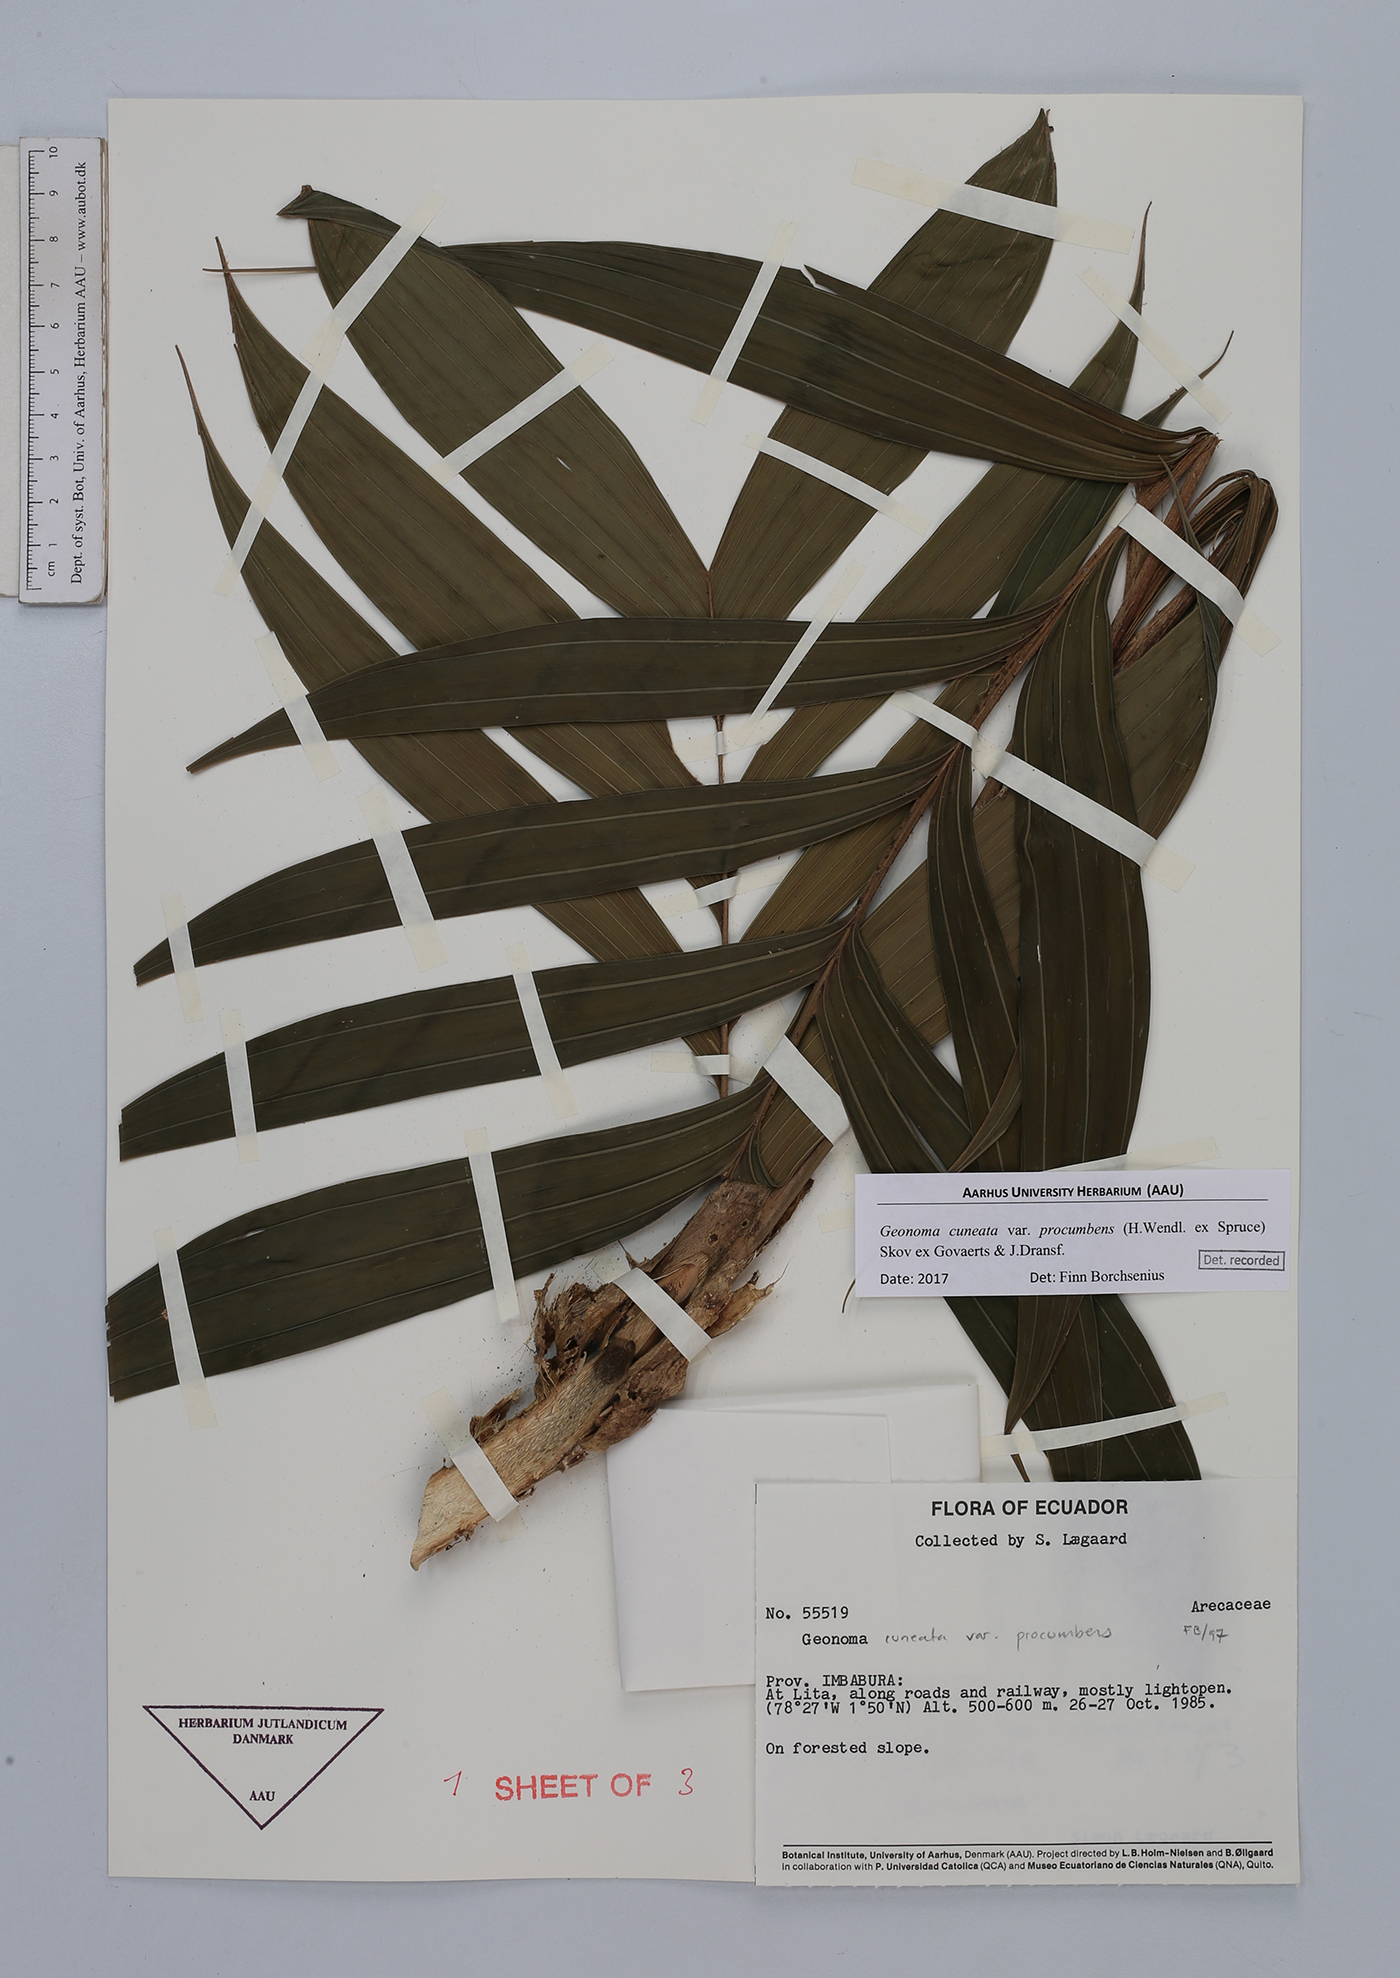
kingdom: Plantae
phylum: Tracheophyta
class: Liliopsida
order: Arecales
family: Arecaceae
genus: Geonoma
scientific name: Geonoma cuneata
